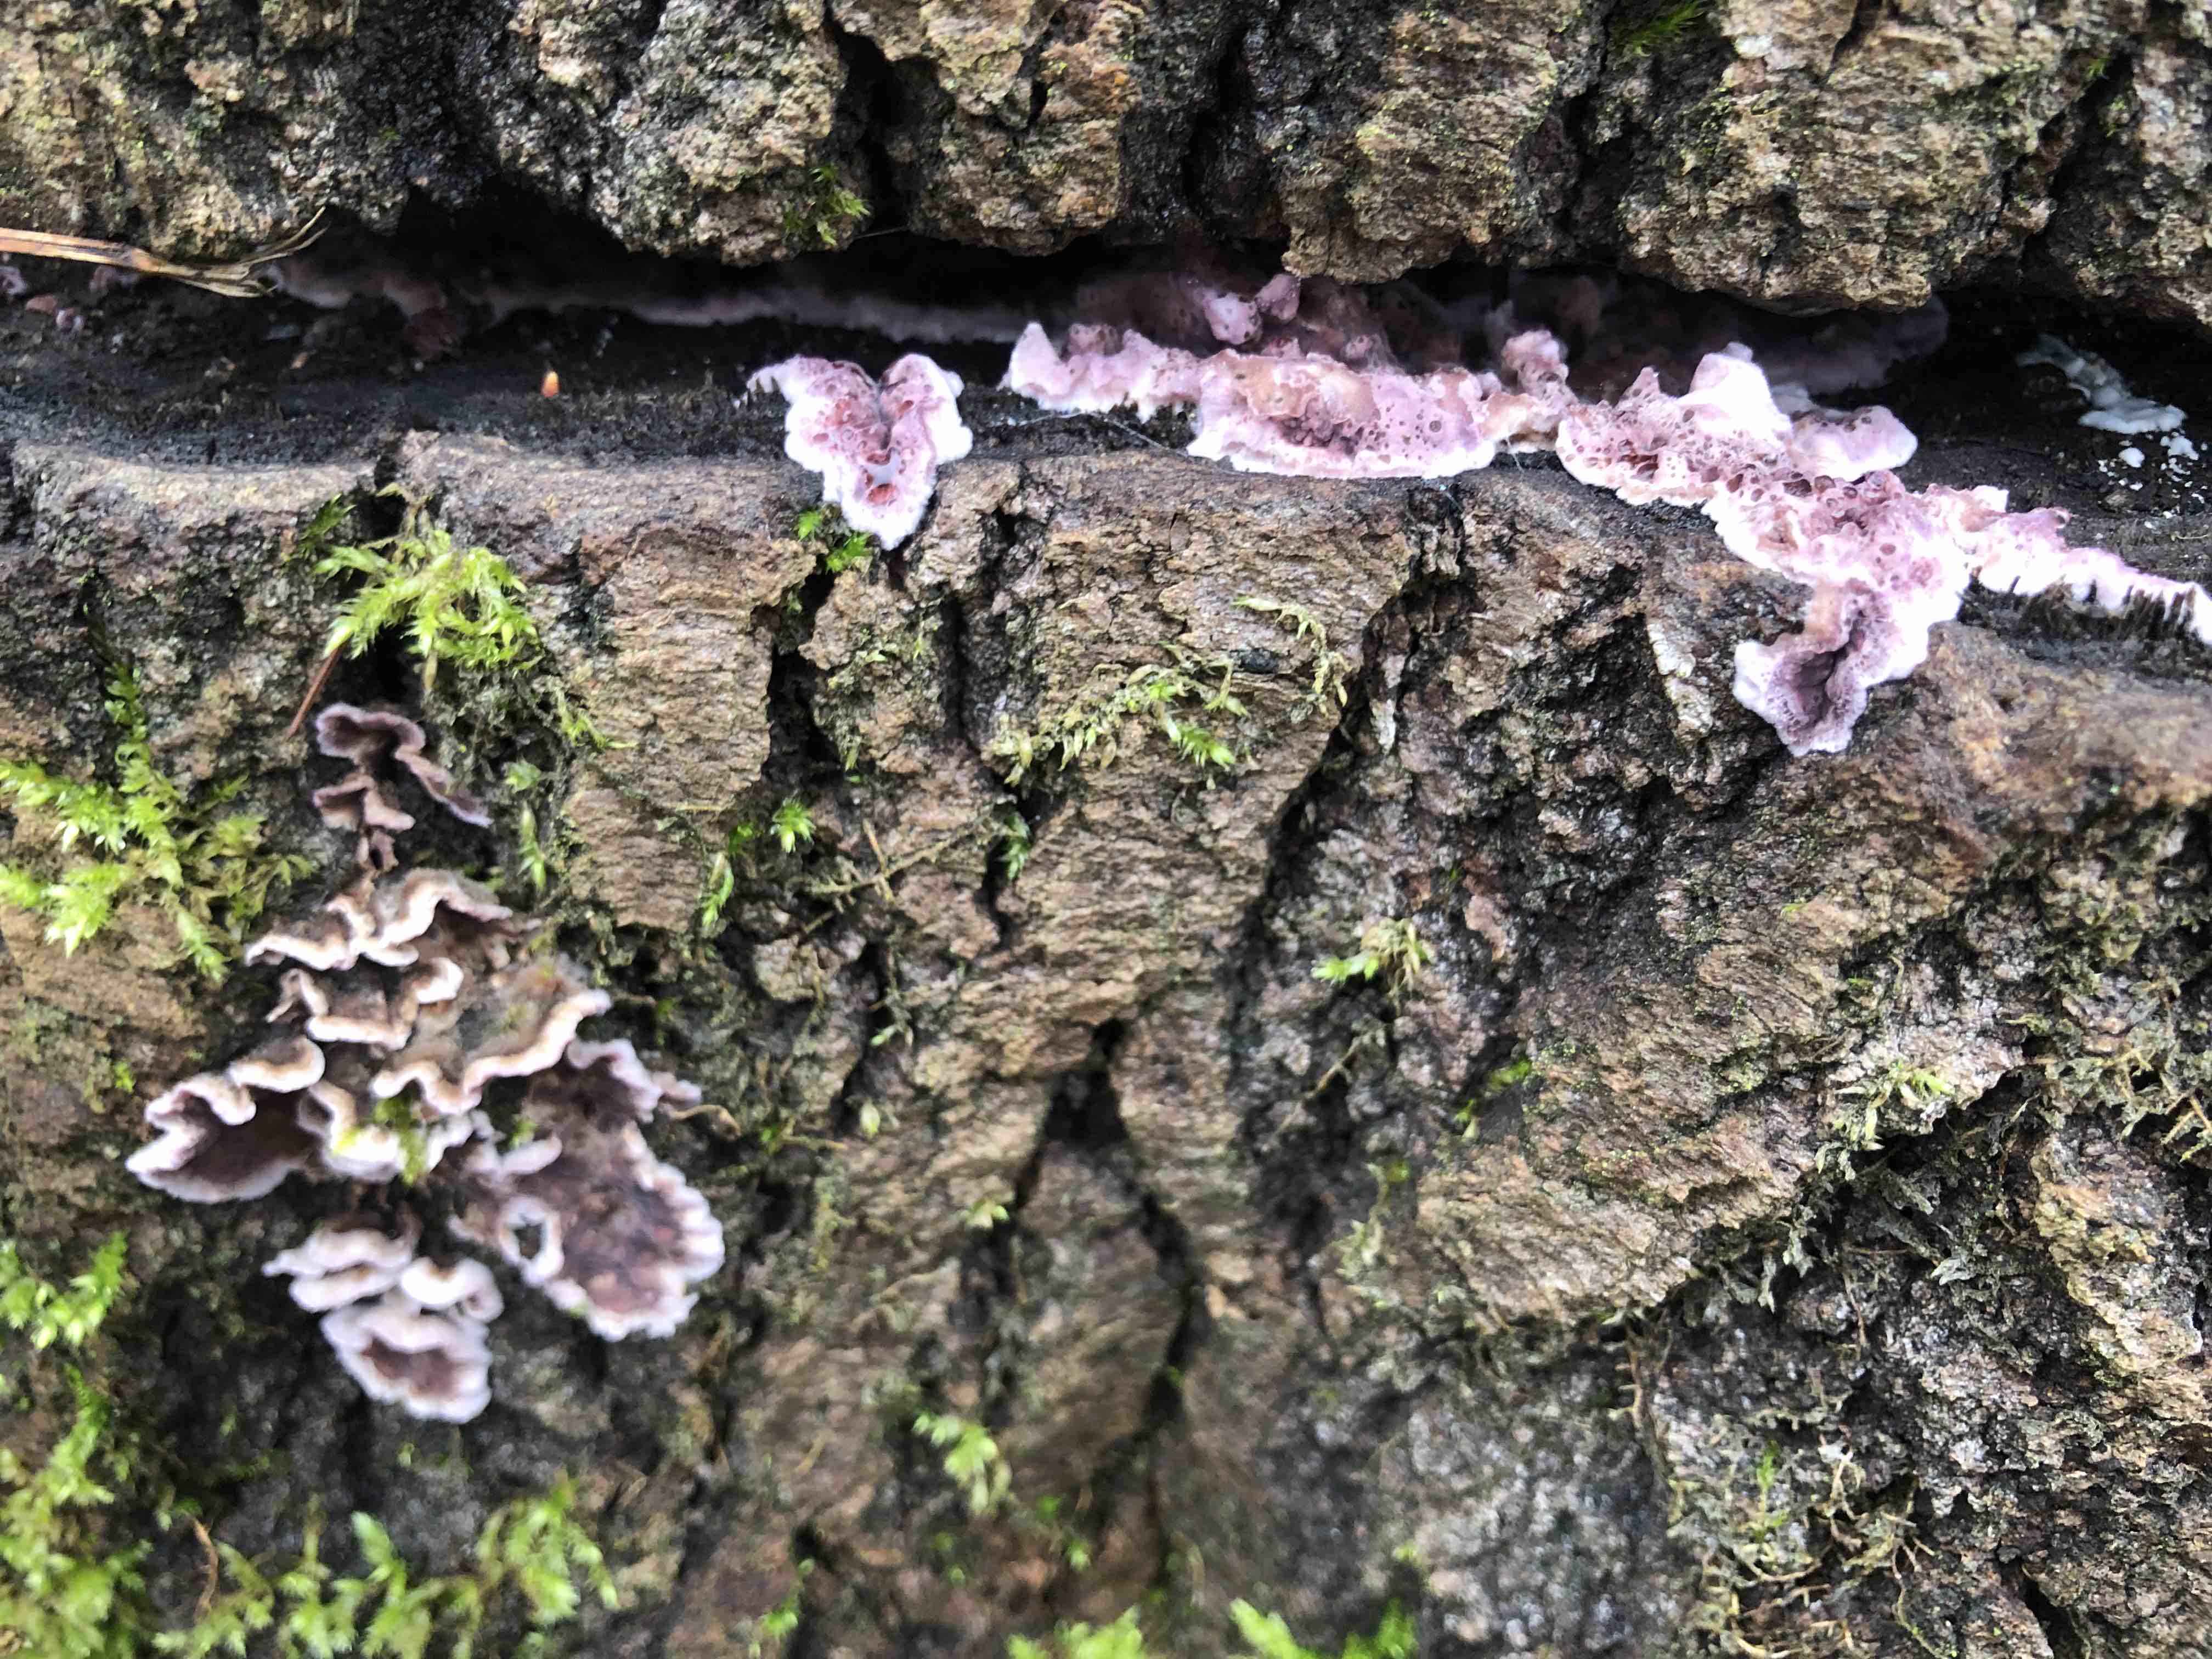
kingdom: Fungi
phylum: Basidiomycota
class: Agaricomycetes
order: Agaricales
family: Cyphellaceae
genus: Chondrostereum
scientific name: Chondrostereum purpureum
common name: purpurlædersvamp
